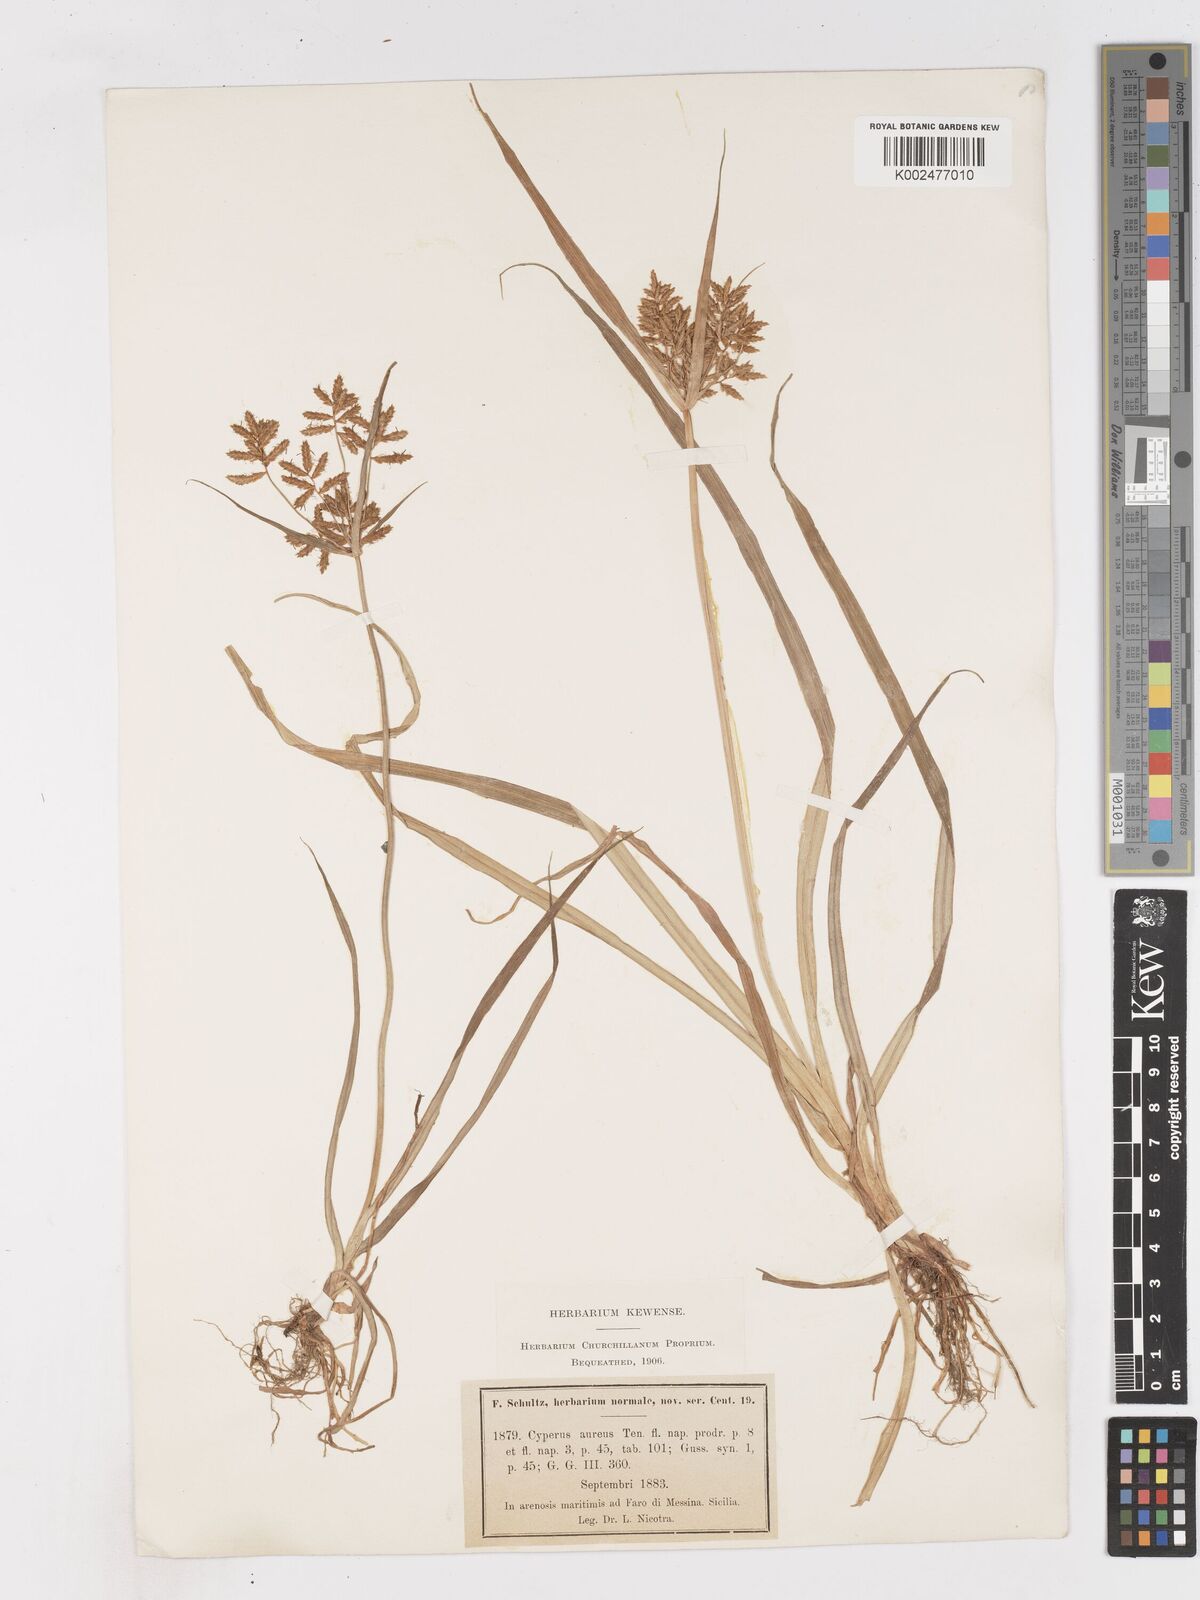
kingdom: Plantae
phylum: Tracheophyta
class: Liliopsida
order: Poales
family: Cyperaceae
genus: Cyperus
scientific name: Cyperus esculentus
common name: Yellow nutsedge
